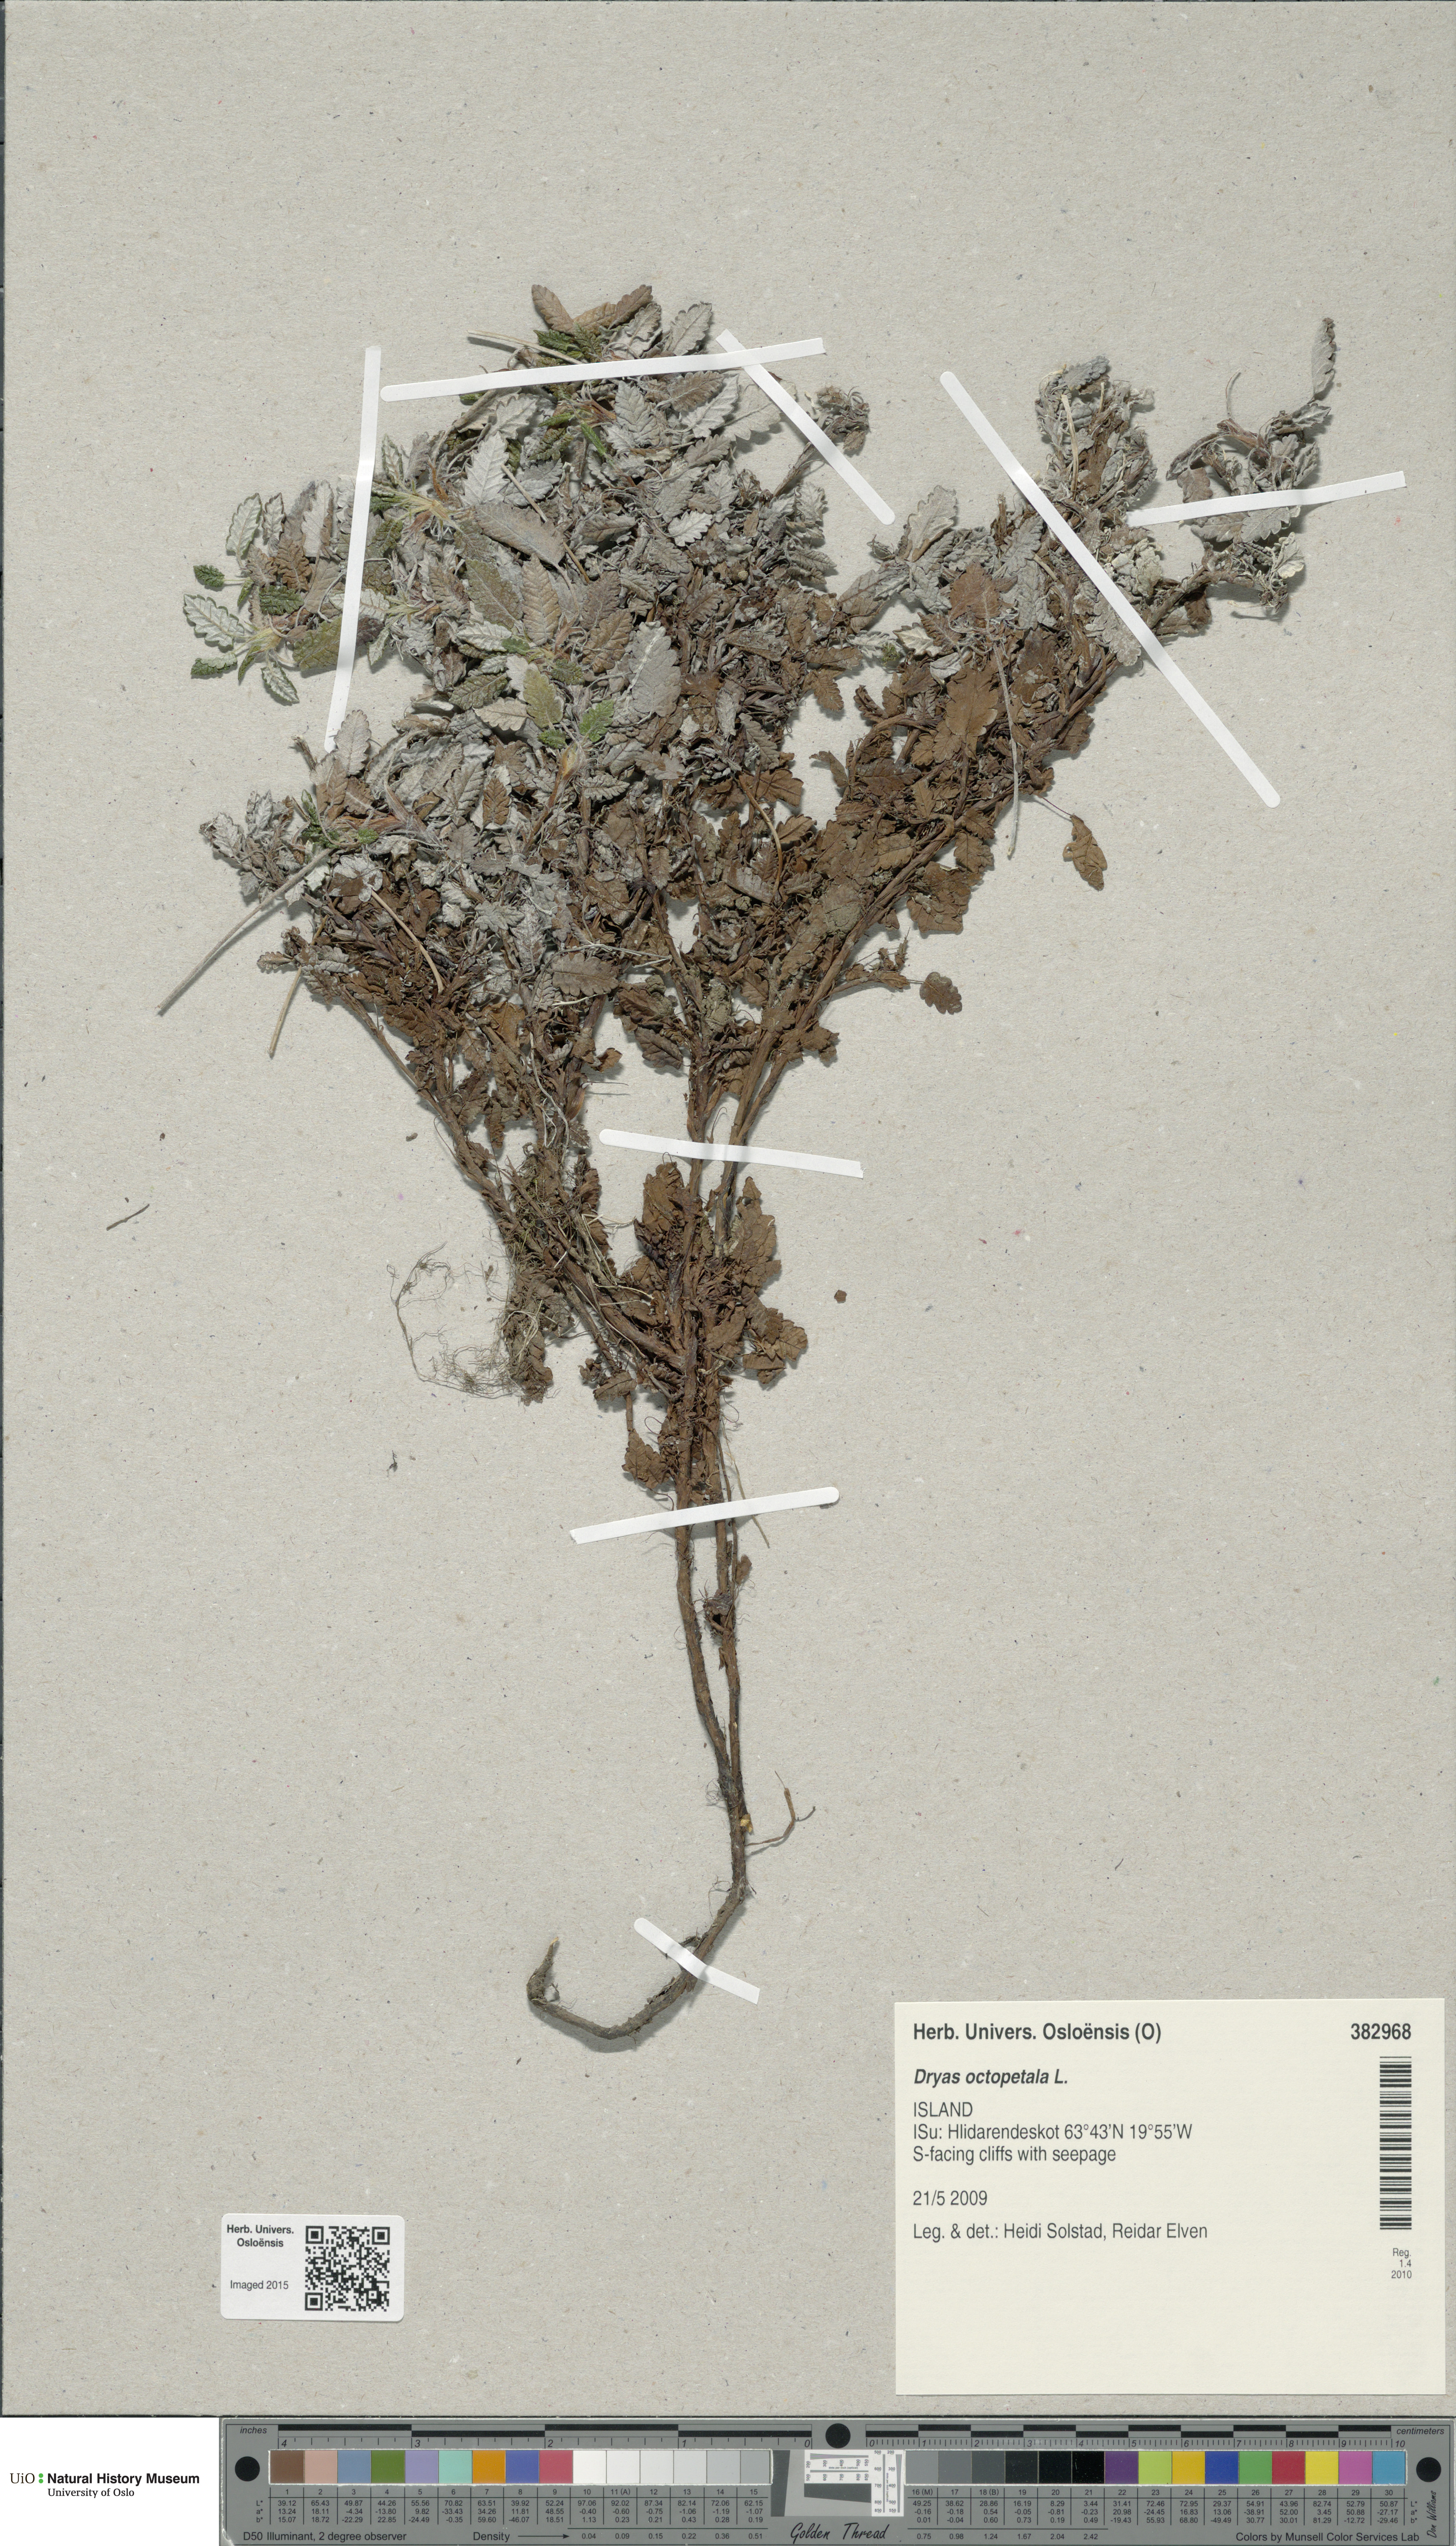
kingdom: Plantae
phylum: Tracheophyta
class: Magnoliopsida
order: Rosales
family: Rosaceae
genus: Dryas
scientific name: Dryas octopetala
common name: Eight-petal mountain-avens
